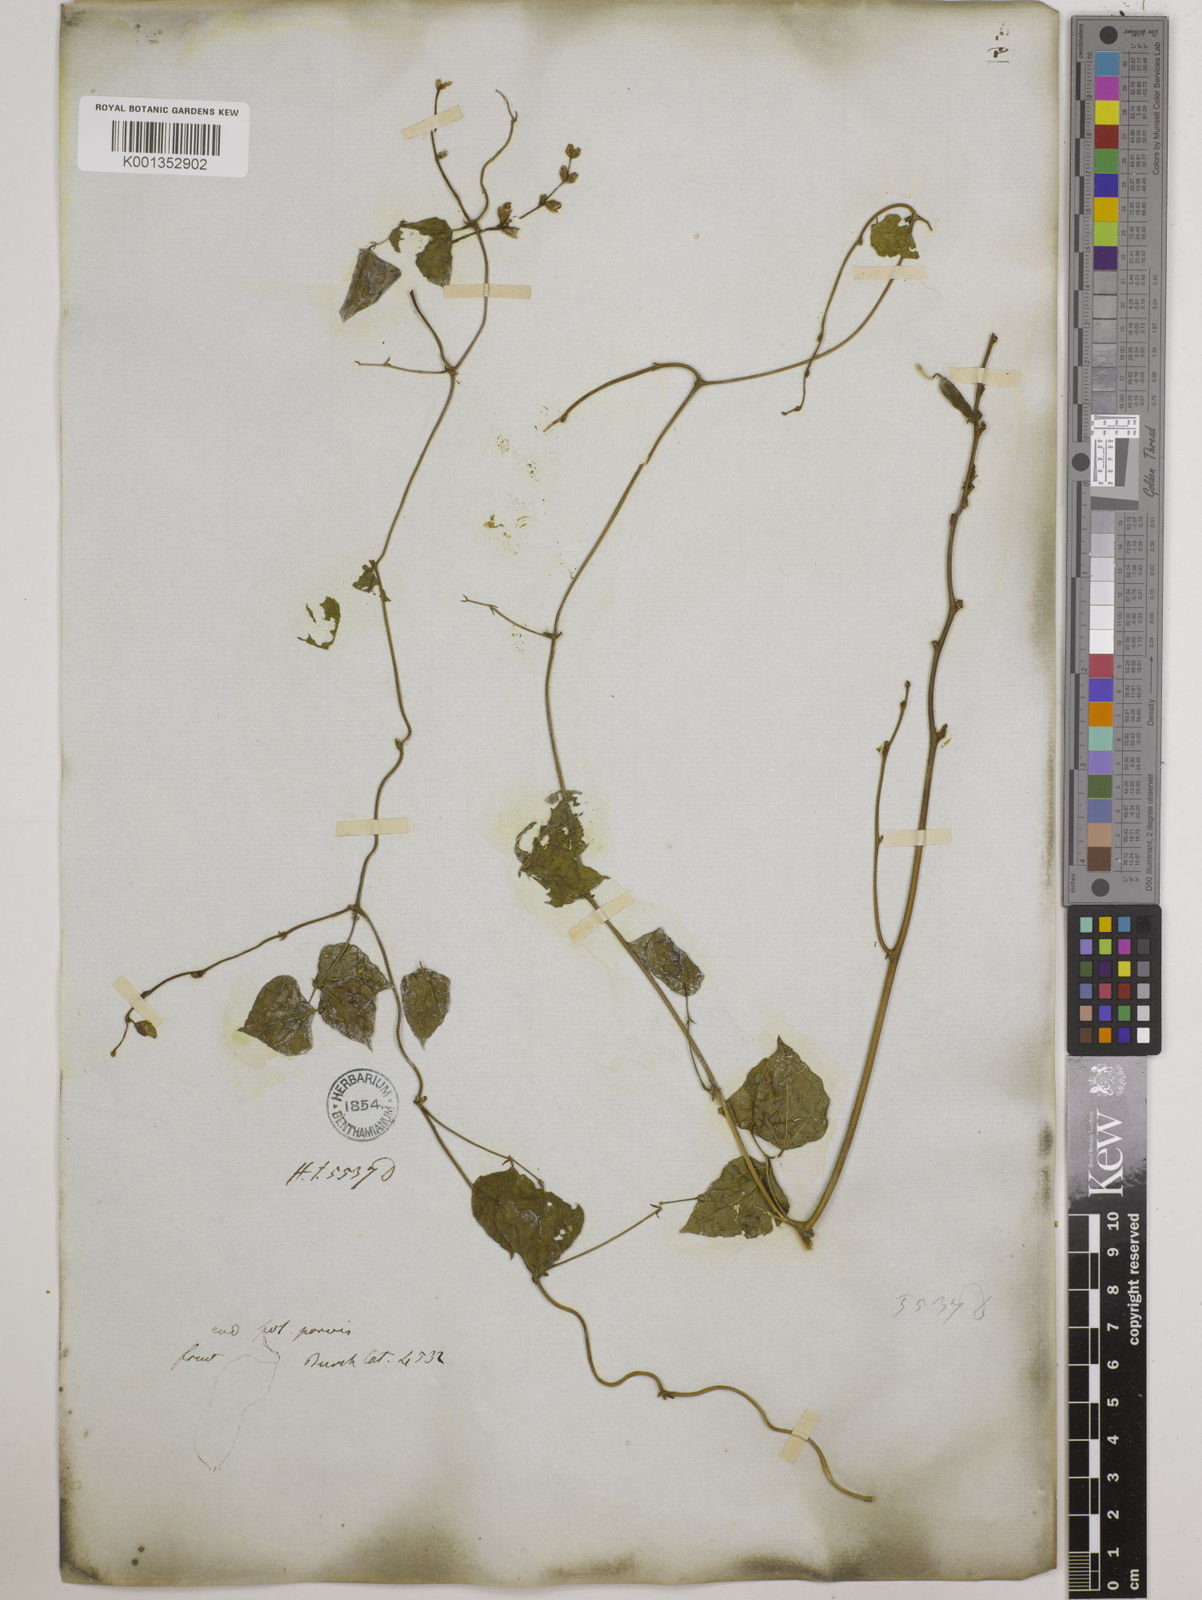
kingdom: Plantae
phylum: Tracheophyta
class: Magnoliopsida
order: Fabales
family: Fabaceae
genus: Lablab
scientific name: Lablab purpureus
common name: Lablab-bean
